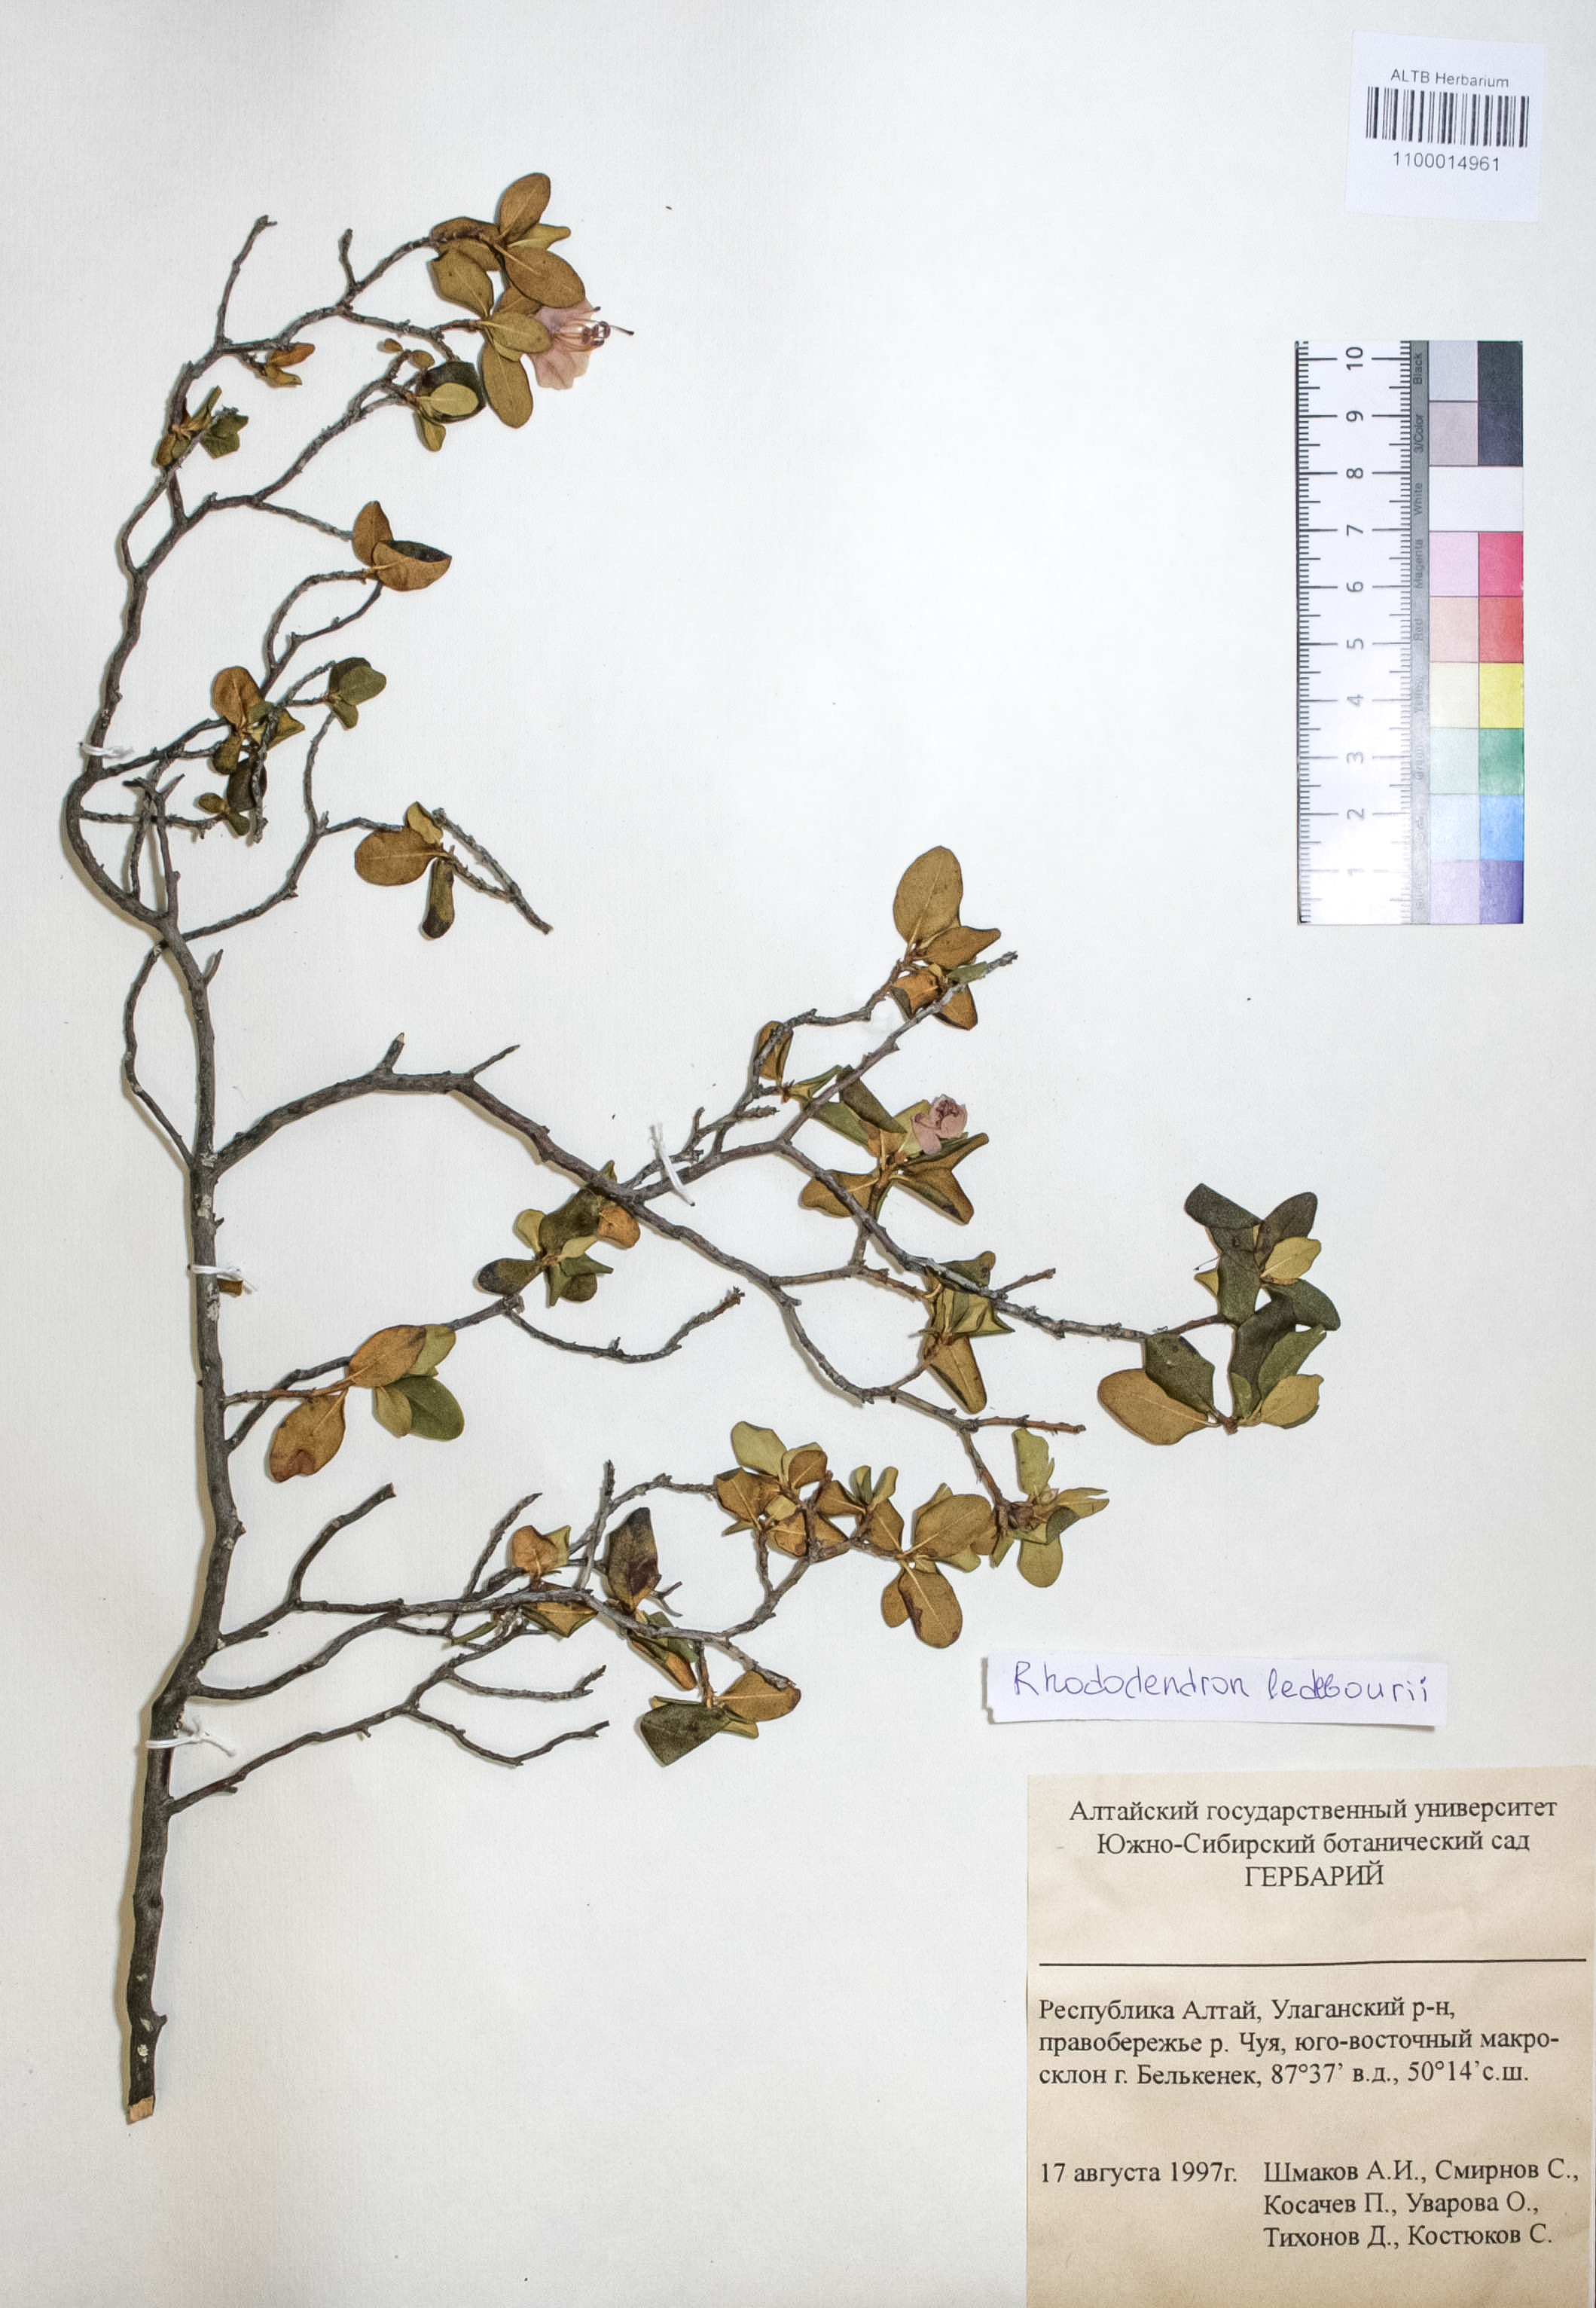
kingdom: Plantae
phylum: Tracheophyta
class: Magnoliopsida
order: Ericales
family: Ericaceae
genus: Rhododendron
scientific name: Rhododendron dauricum
